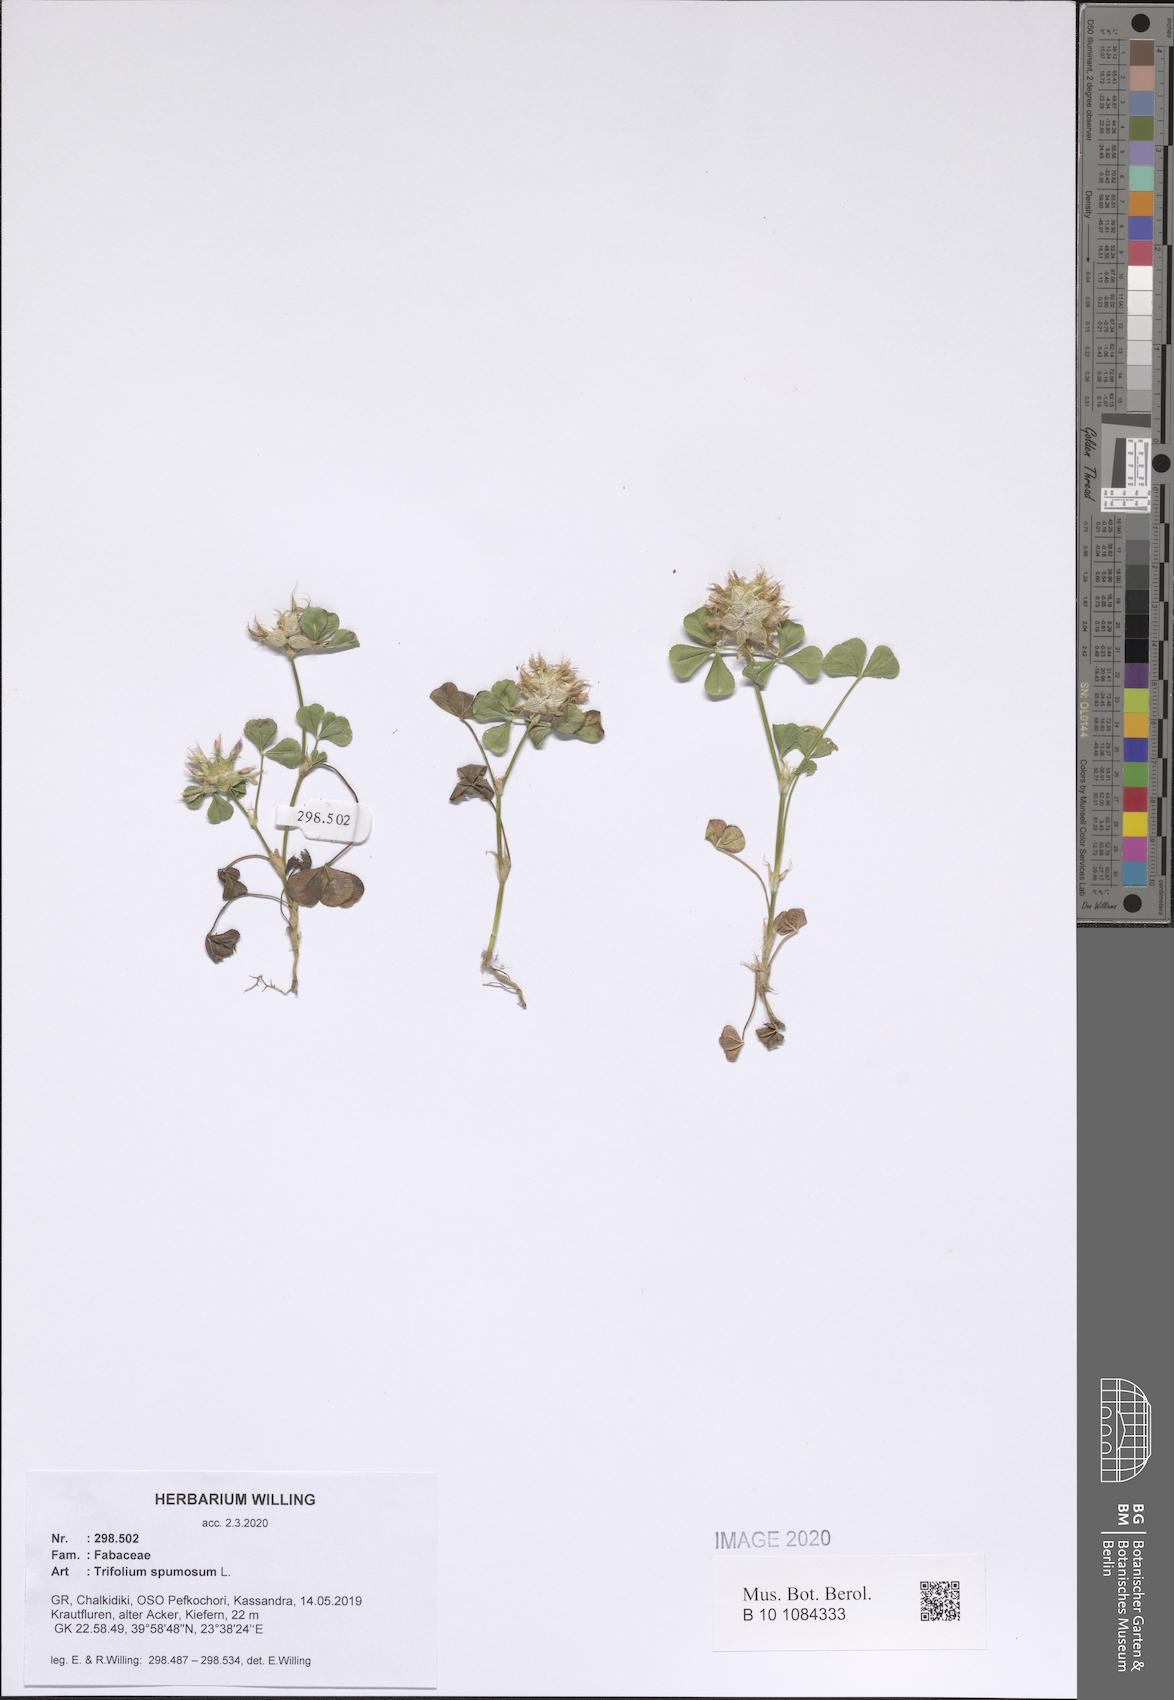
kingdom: Plantae
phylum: Tracheophyta
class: Magnoliopsida
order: Fabales
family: Fabaceae
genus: Trifolium
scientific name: Trifolium spumosum
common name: Mediterranean clover
